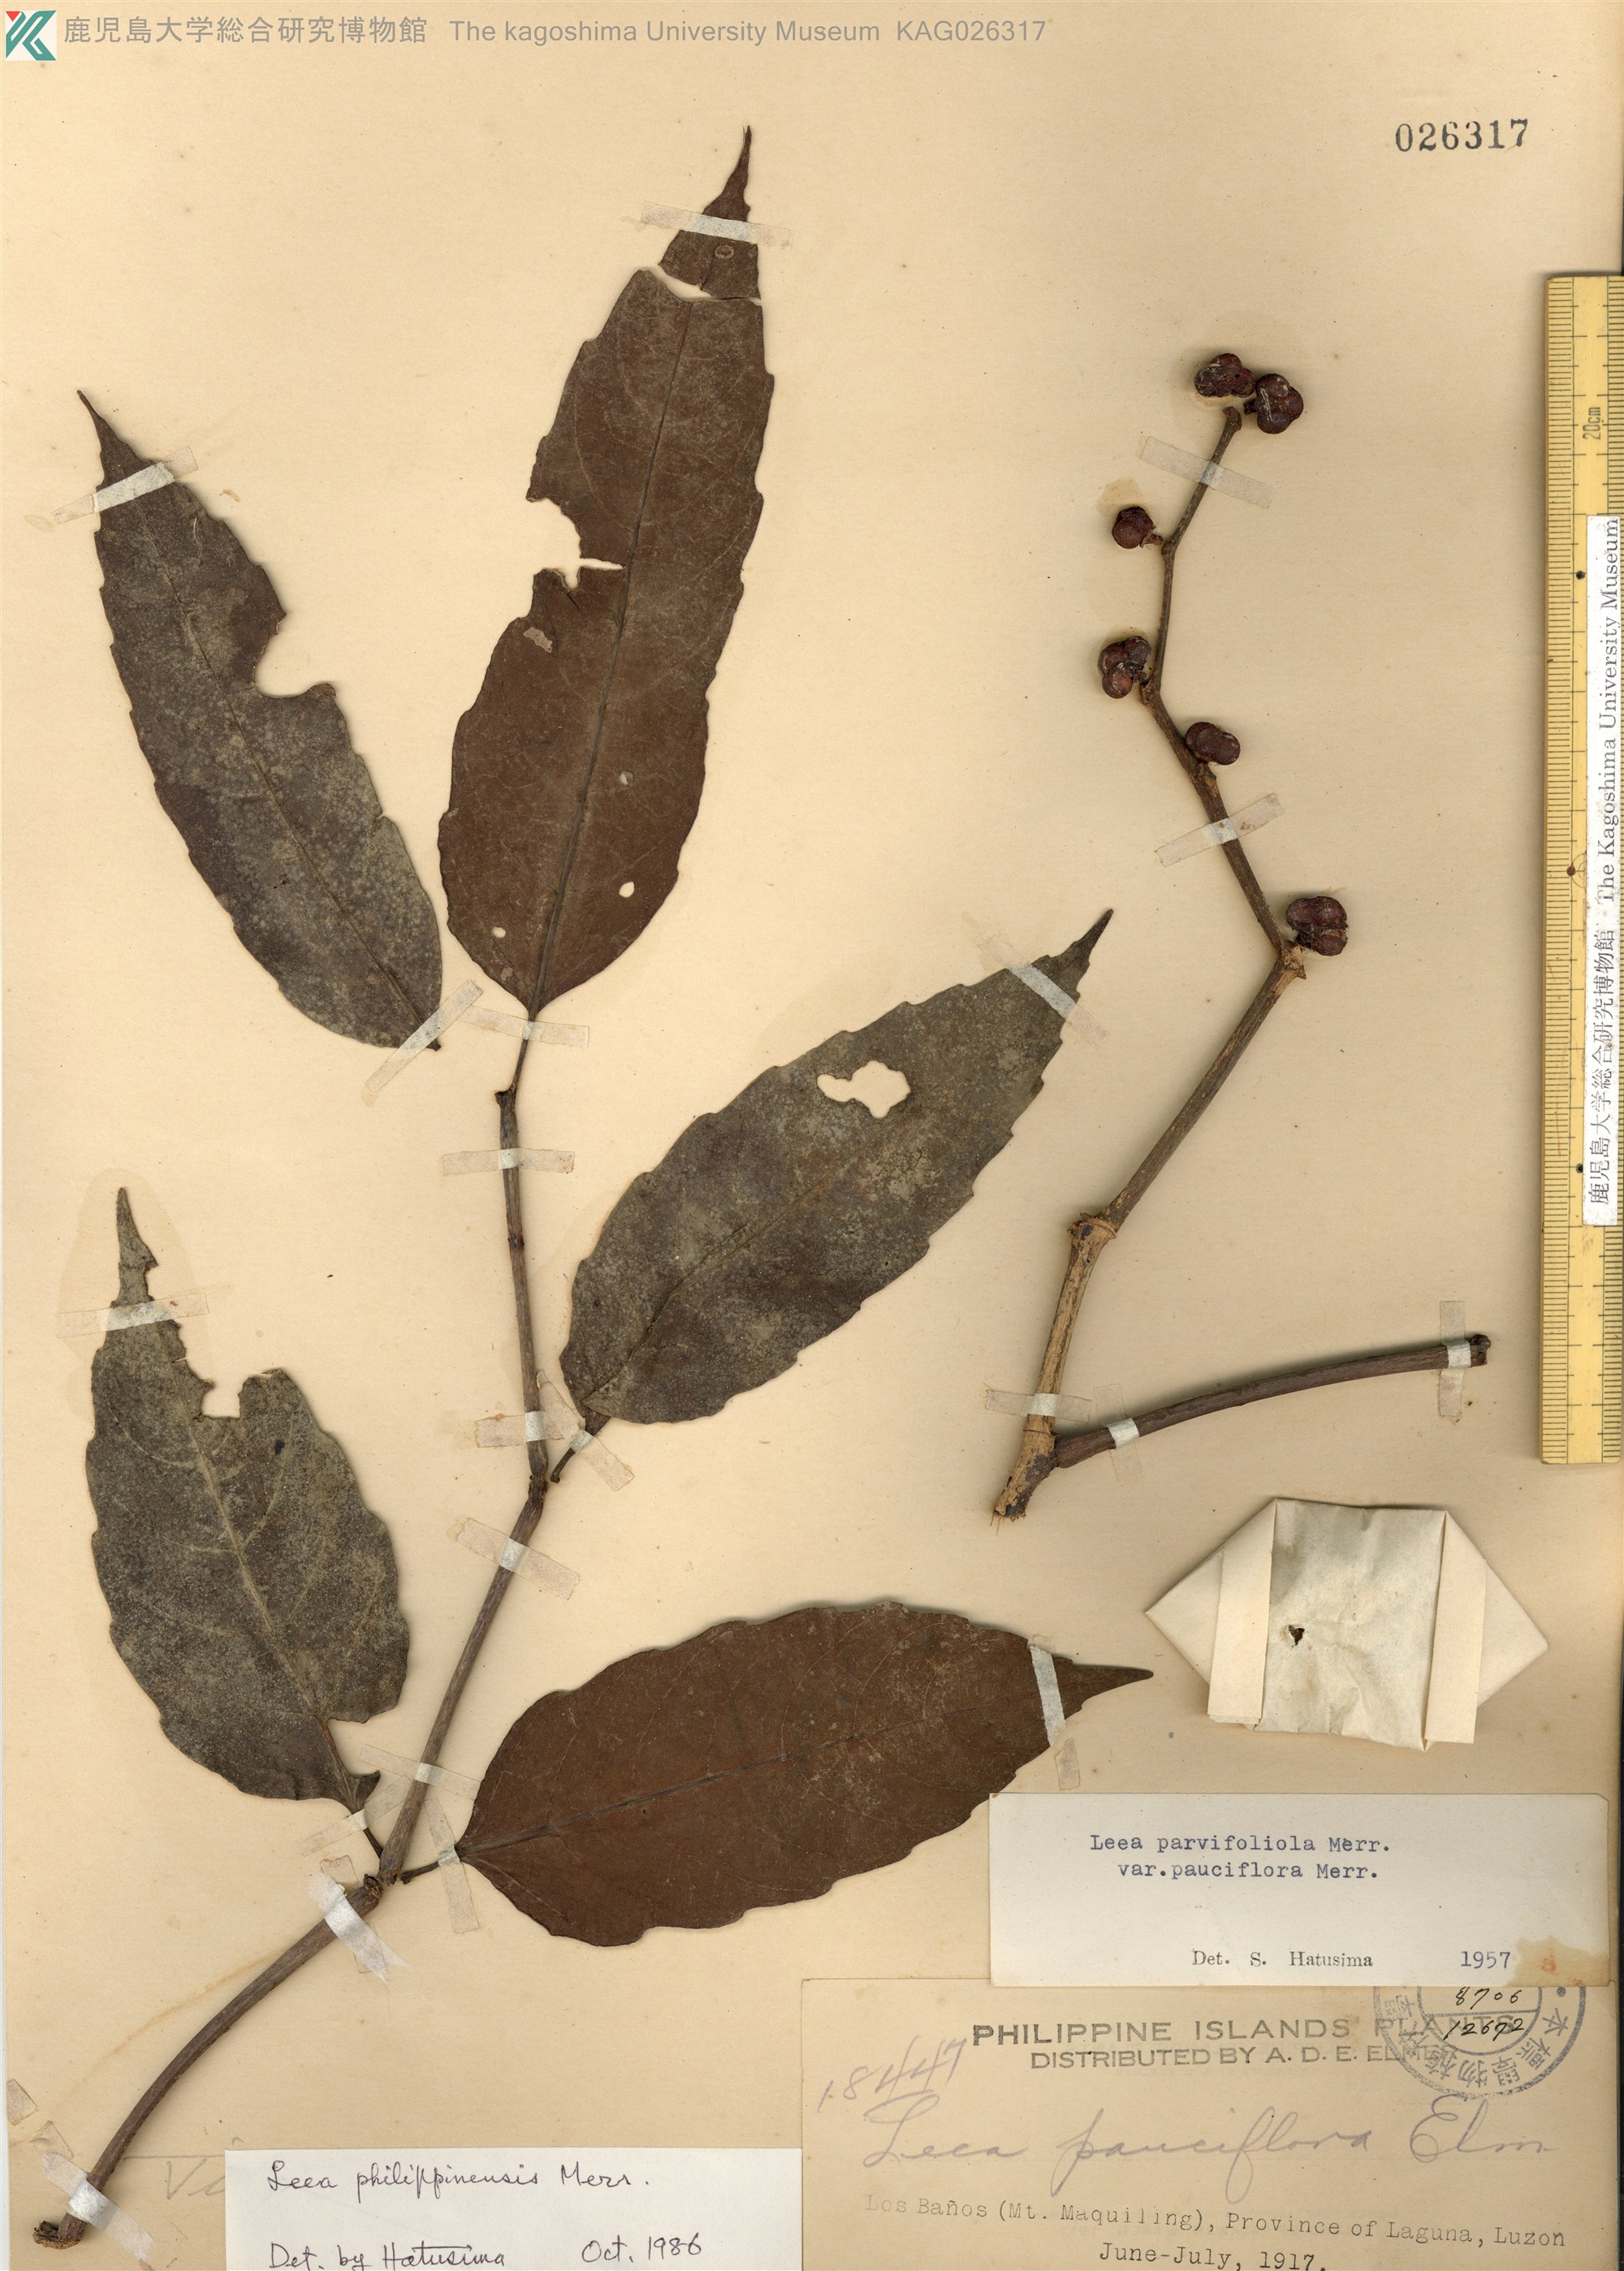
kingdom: Plantae
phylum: Tracheophyta
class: Magnoliopsida
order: Vitales
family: Vitaceae
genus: Leea
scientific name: Leea philippinensis
